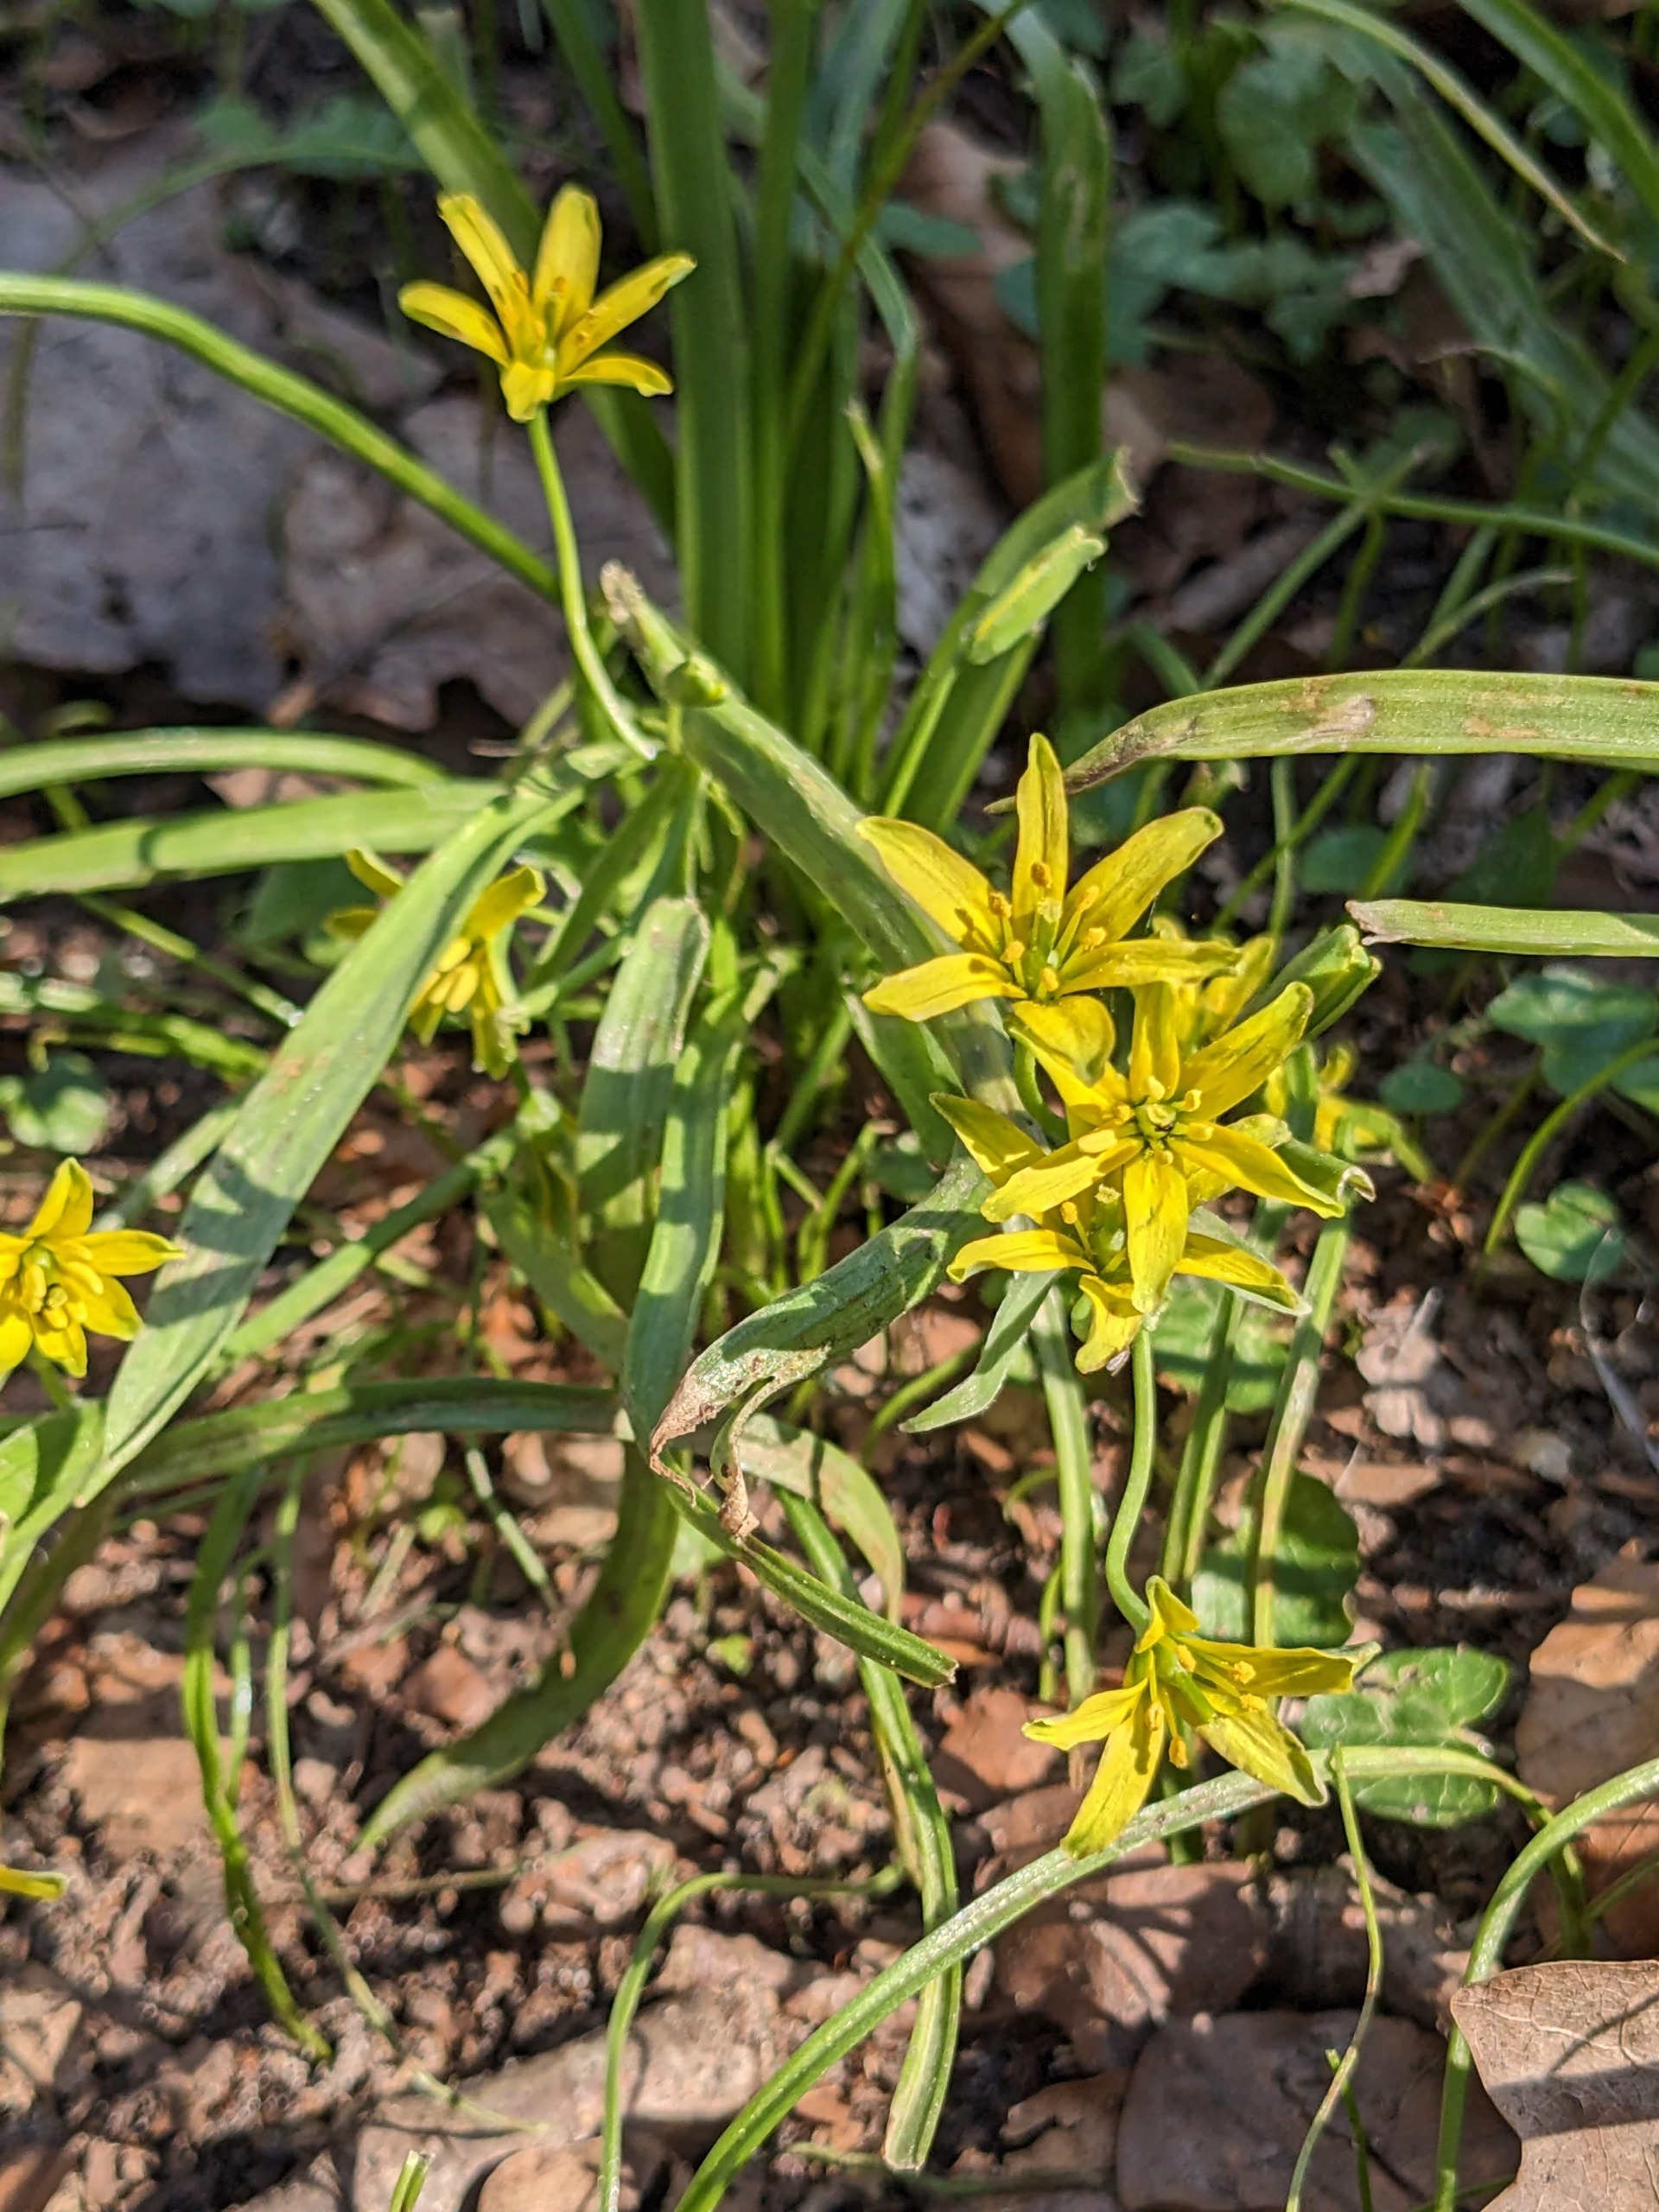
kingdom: Plantae
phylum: Tracheophyta
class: Liliopsida
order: Liliales
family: Liliaceae
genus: Gagea
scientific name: Gagea lutea
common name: Almindelig guldstjerne
